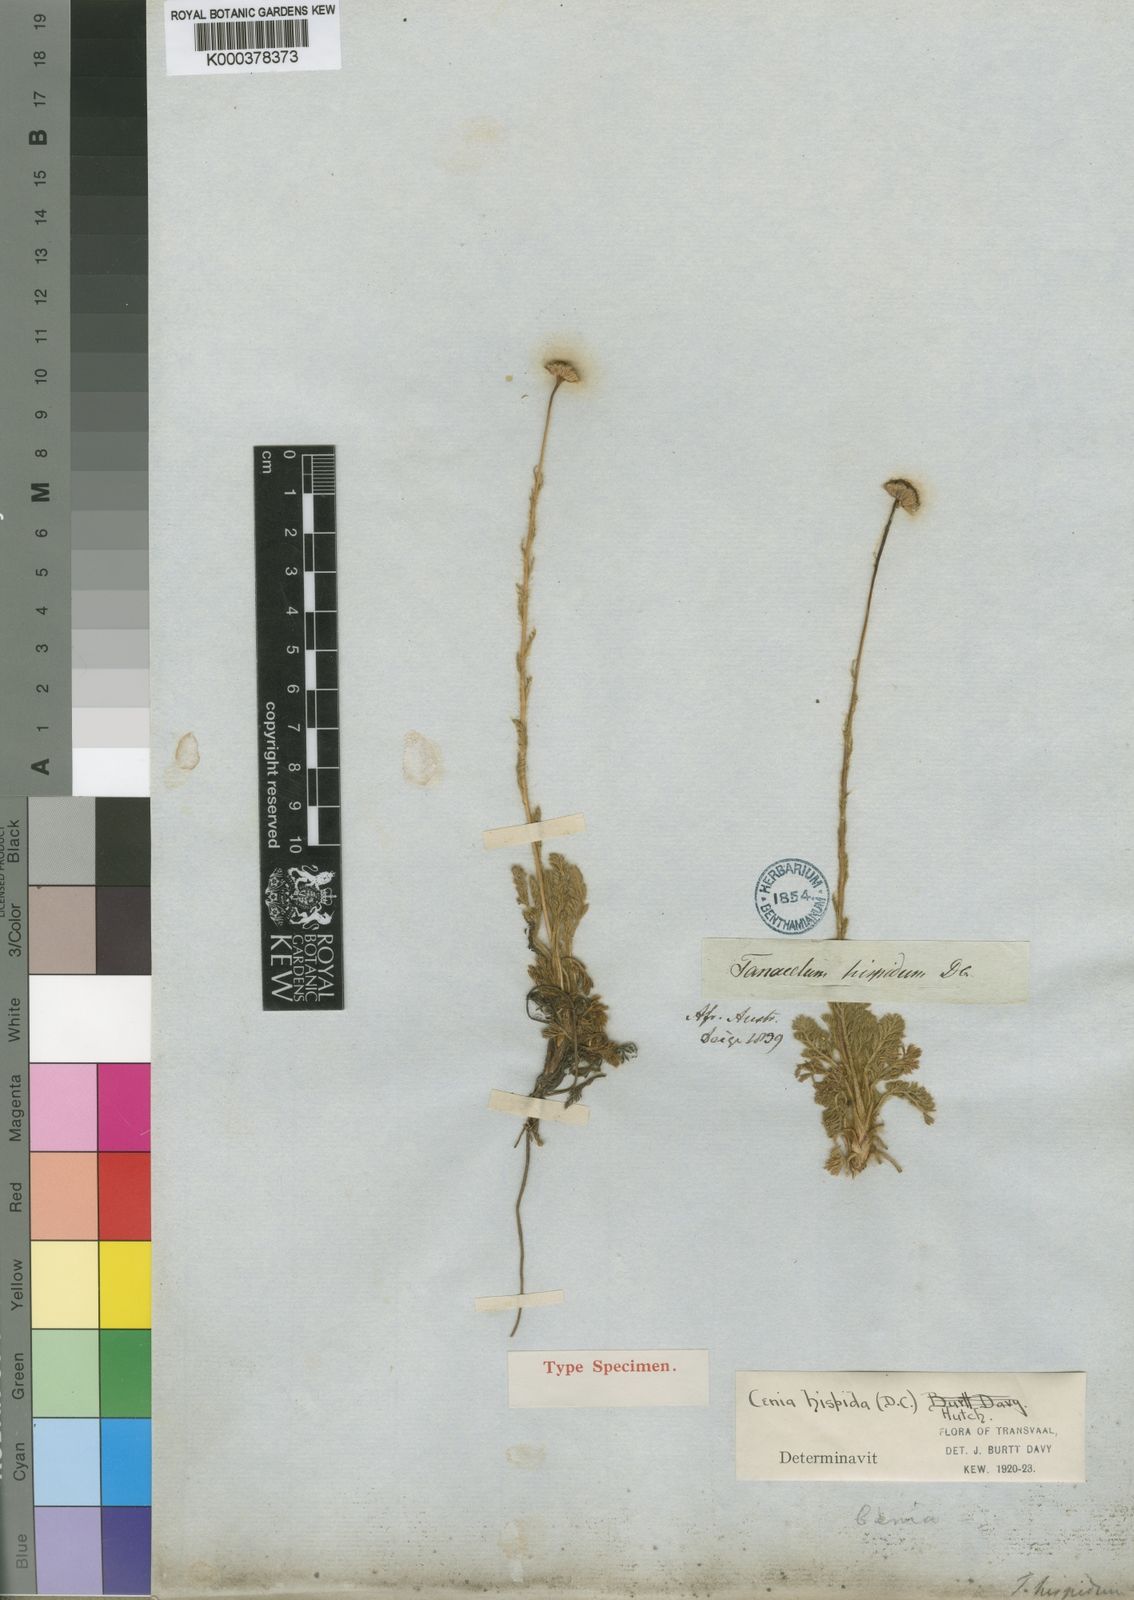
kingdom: Plantae
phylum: Tracheophyta
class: Magnoliopsida
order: Asterales
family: Asteraceae
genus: Cotula
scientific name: Cotula hispida
